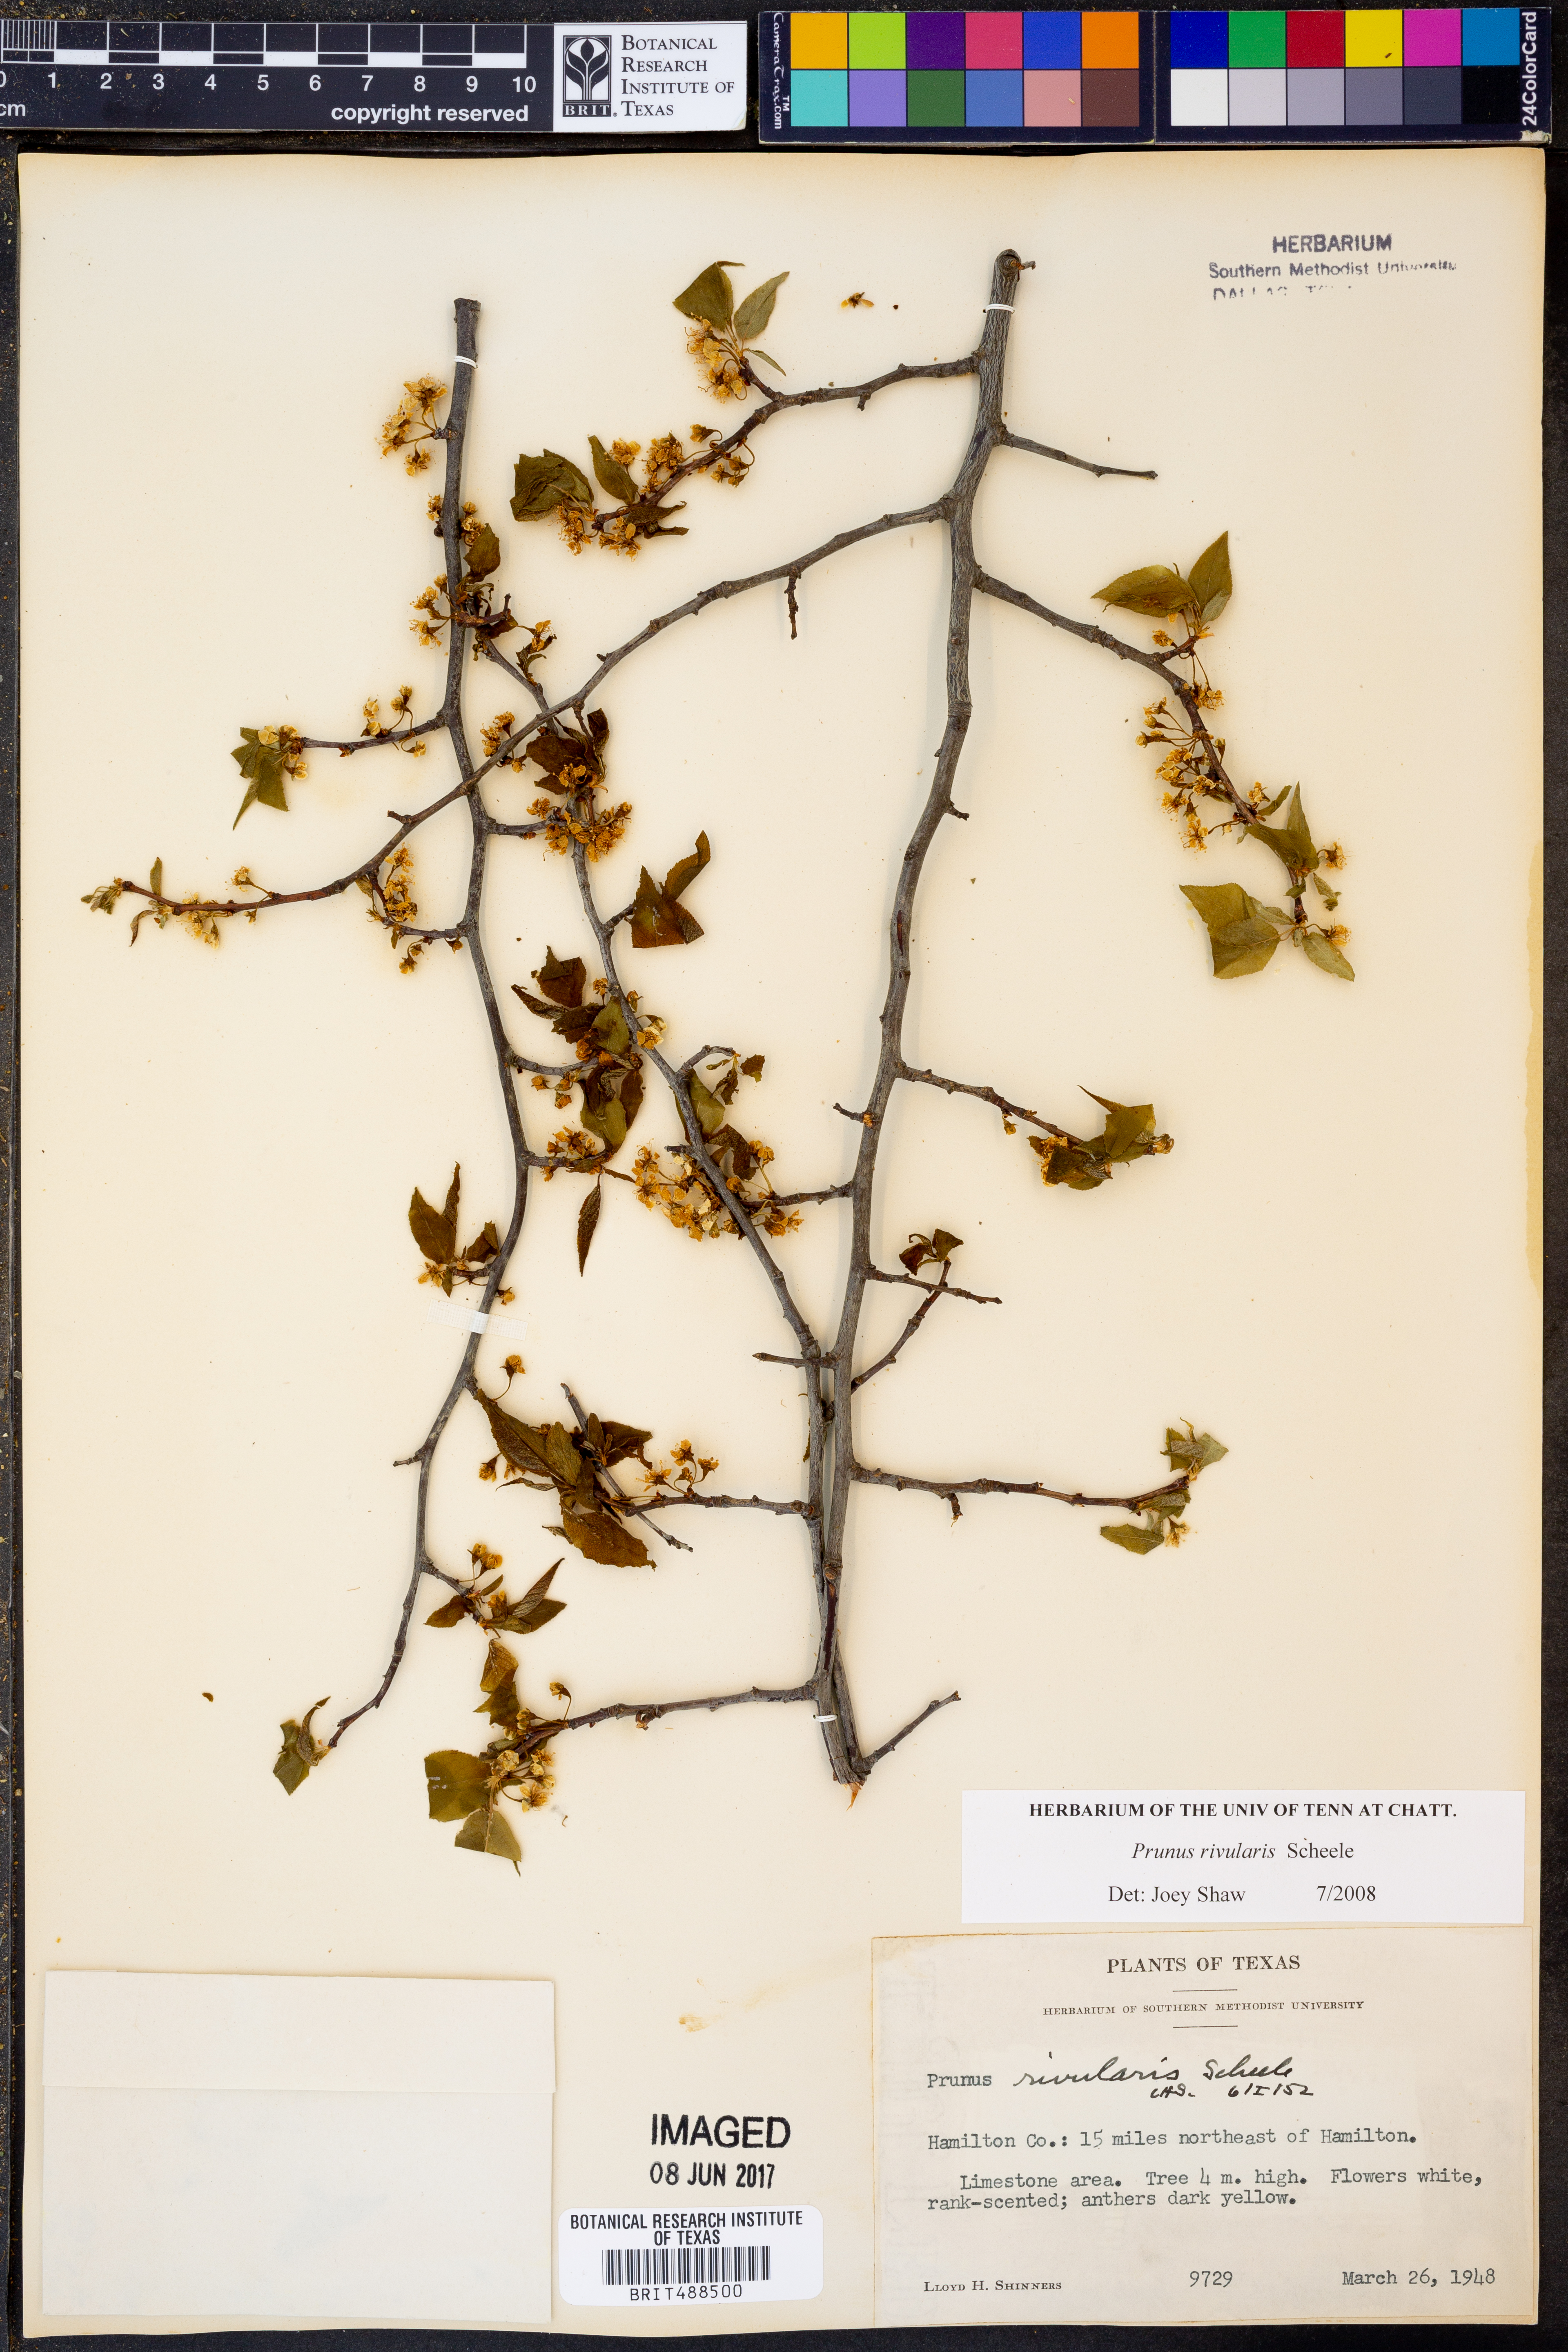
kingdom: Plantae
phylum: Tracheophyta
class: Magnoliopsida
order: Rosales
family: Rosaceae
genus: Prunus
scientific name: Prunus rivularis
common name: Creek plum
